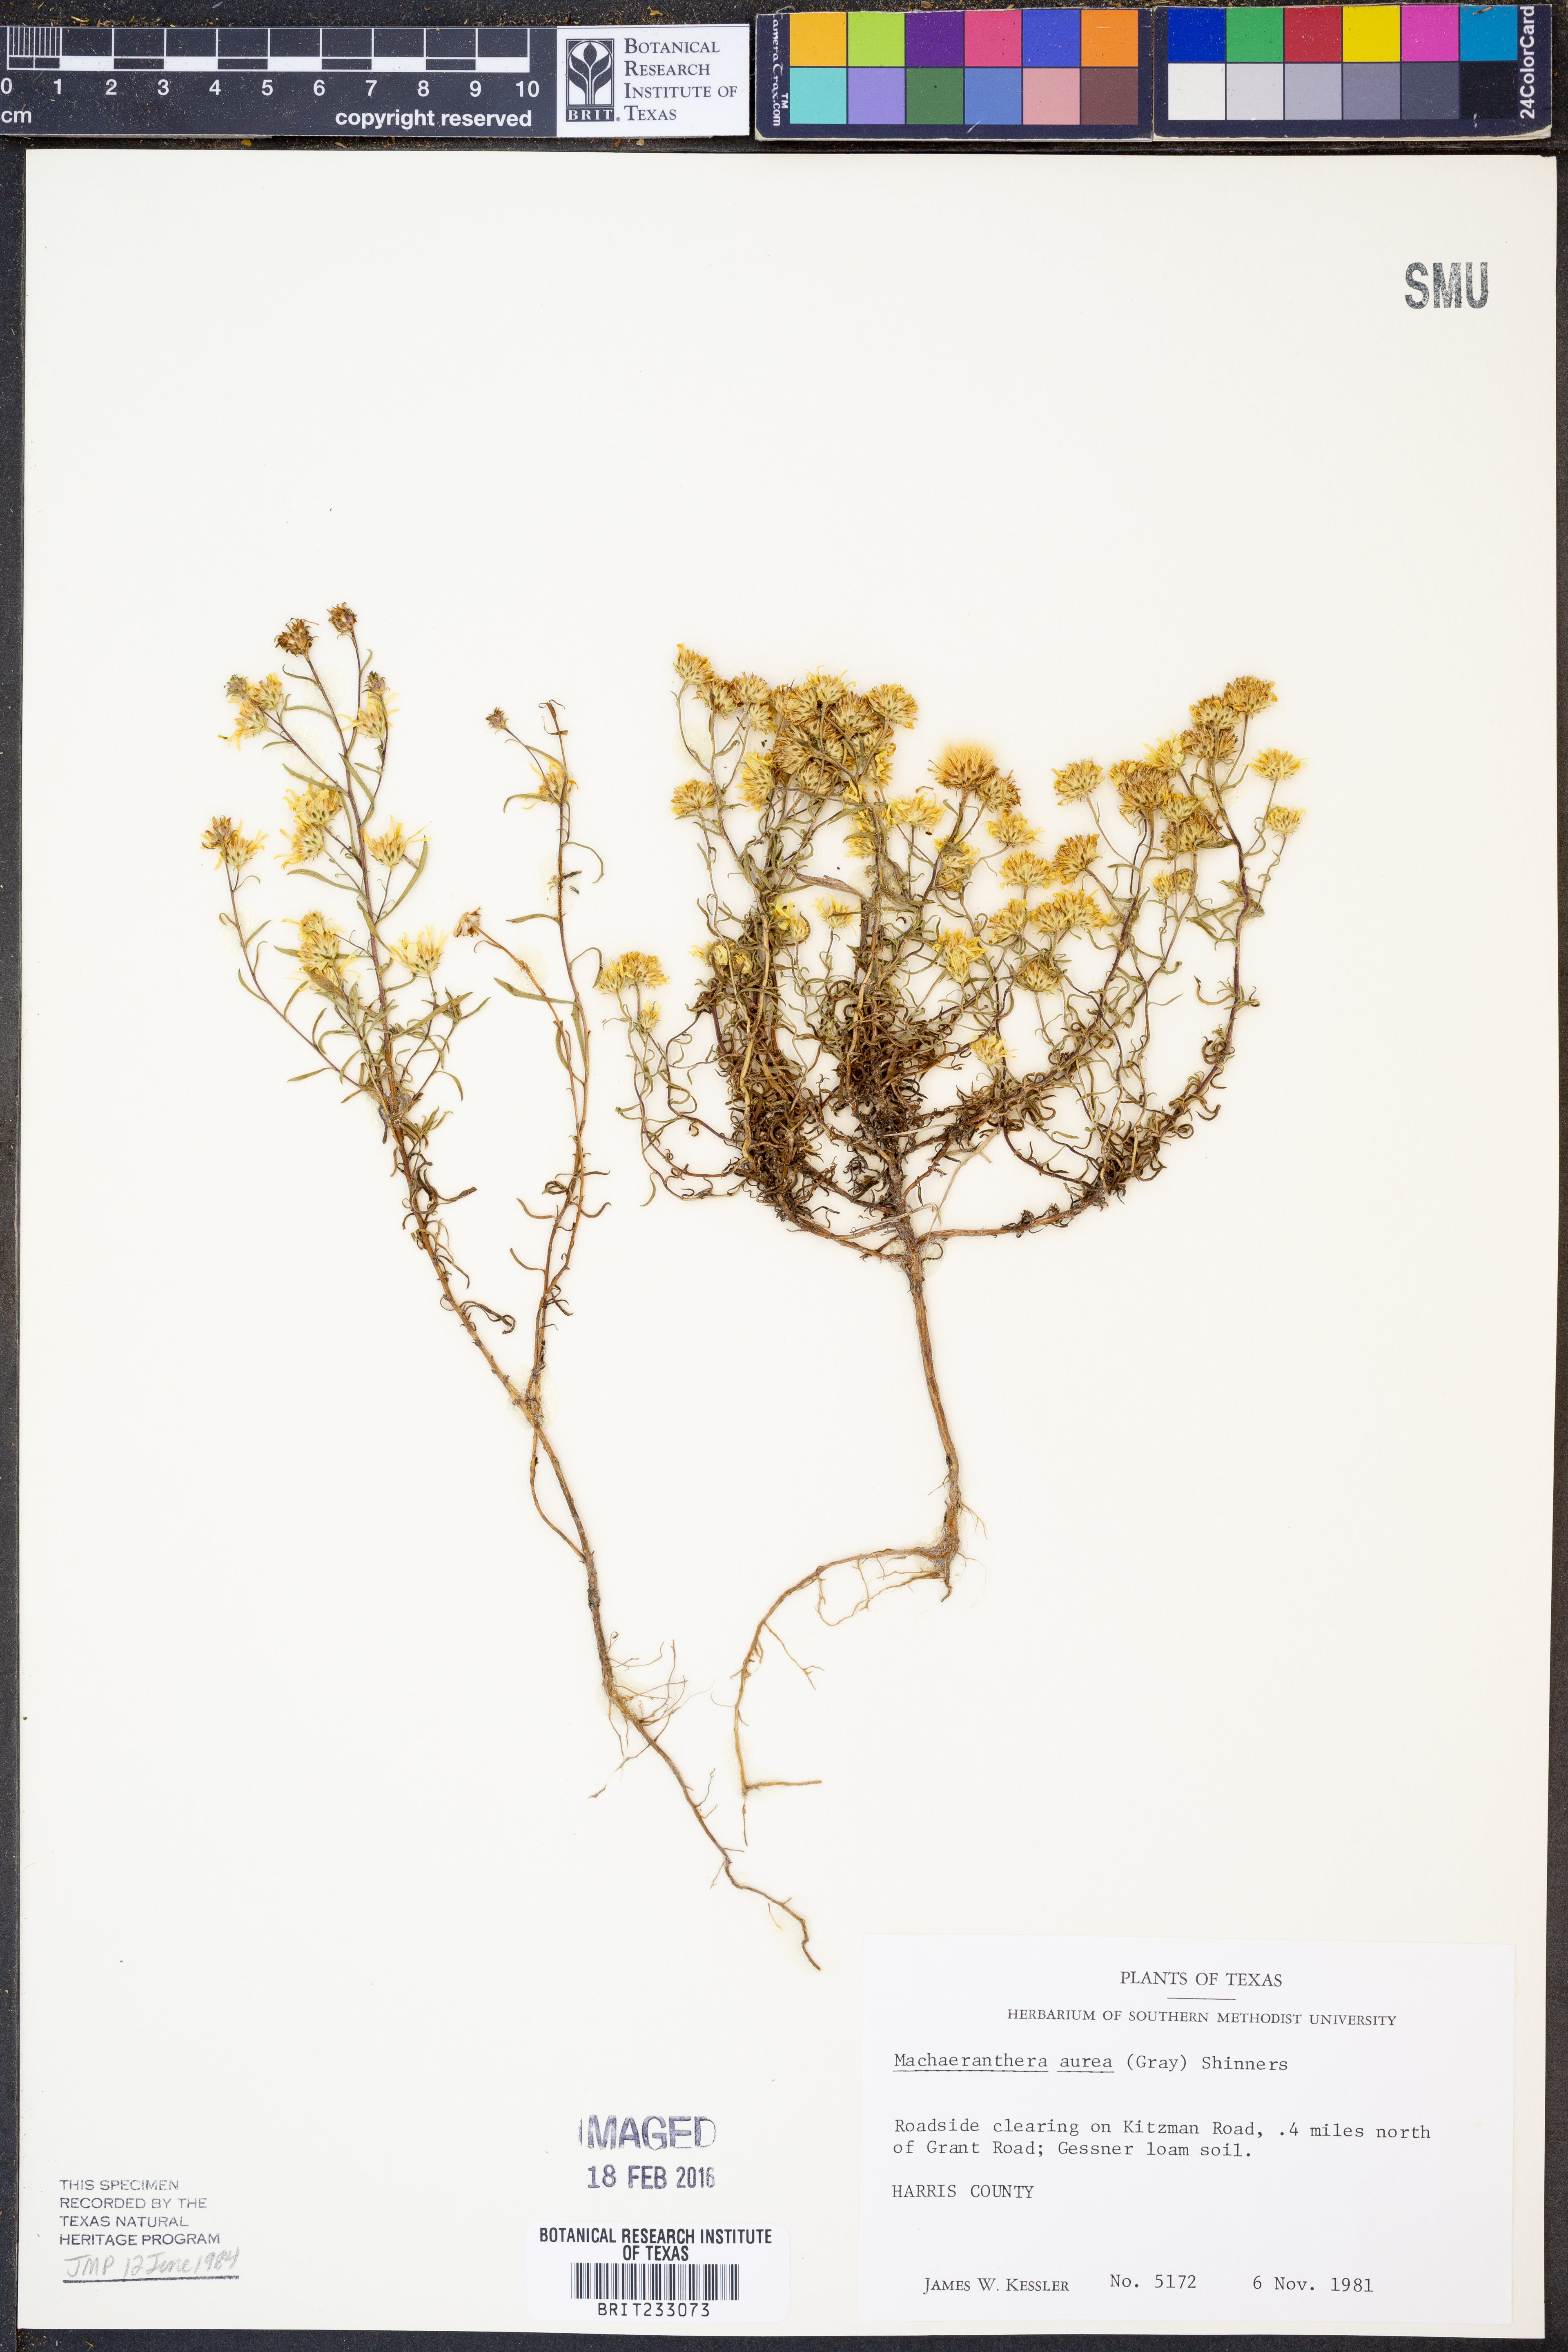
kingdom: Plantae
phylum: Tracheophyta
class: Magnoliopsida
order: Asterales
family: Asteraceae
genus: Rayjacksonia
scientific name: Rayjacksonia aurea
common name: Houston camphor daisy
